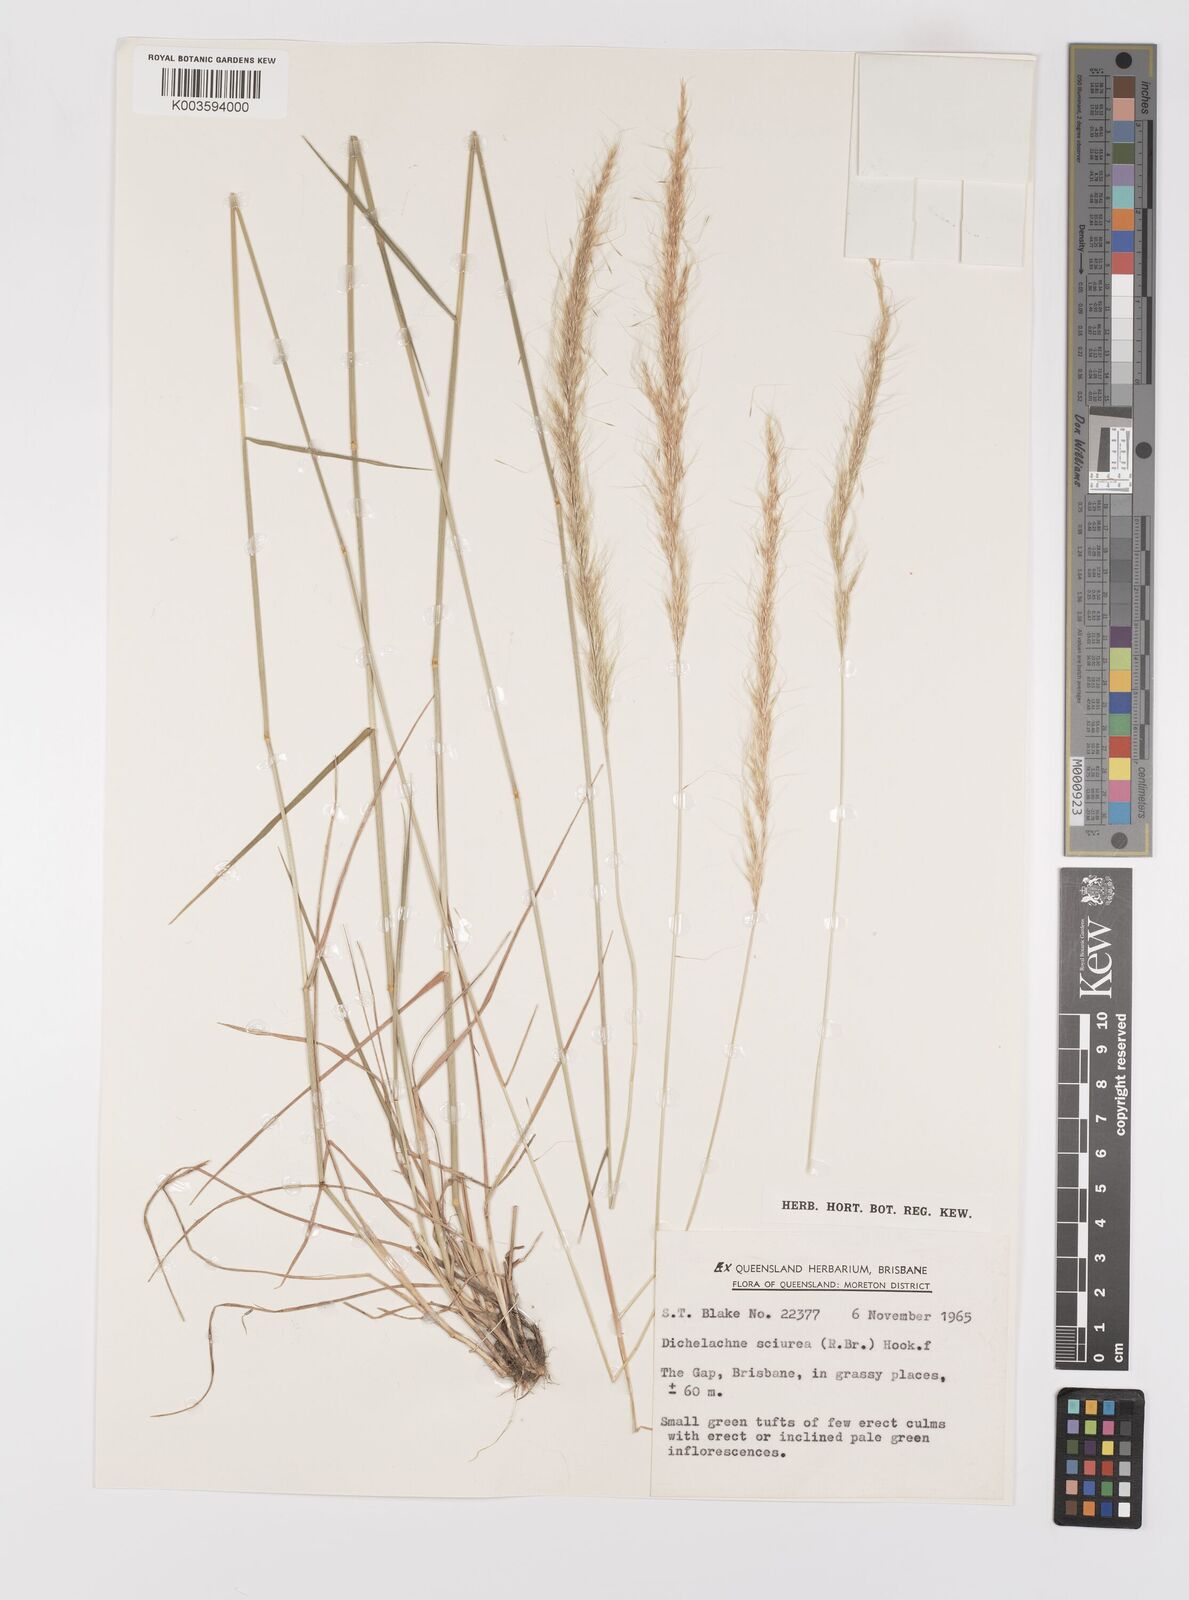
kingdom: Plantae
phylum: Tracheophyta
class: Liliopsida
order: Poales
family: Poaceae
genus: Dichelachne
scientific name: Dichelachne micrantha
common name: Plumegrass
